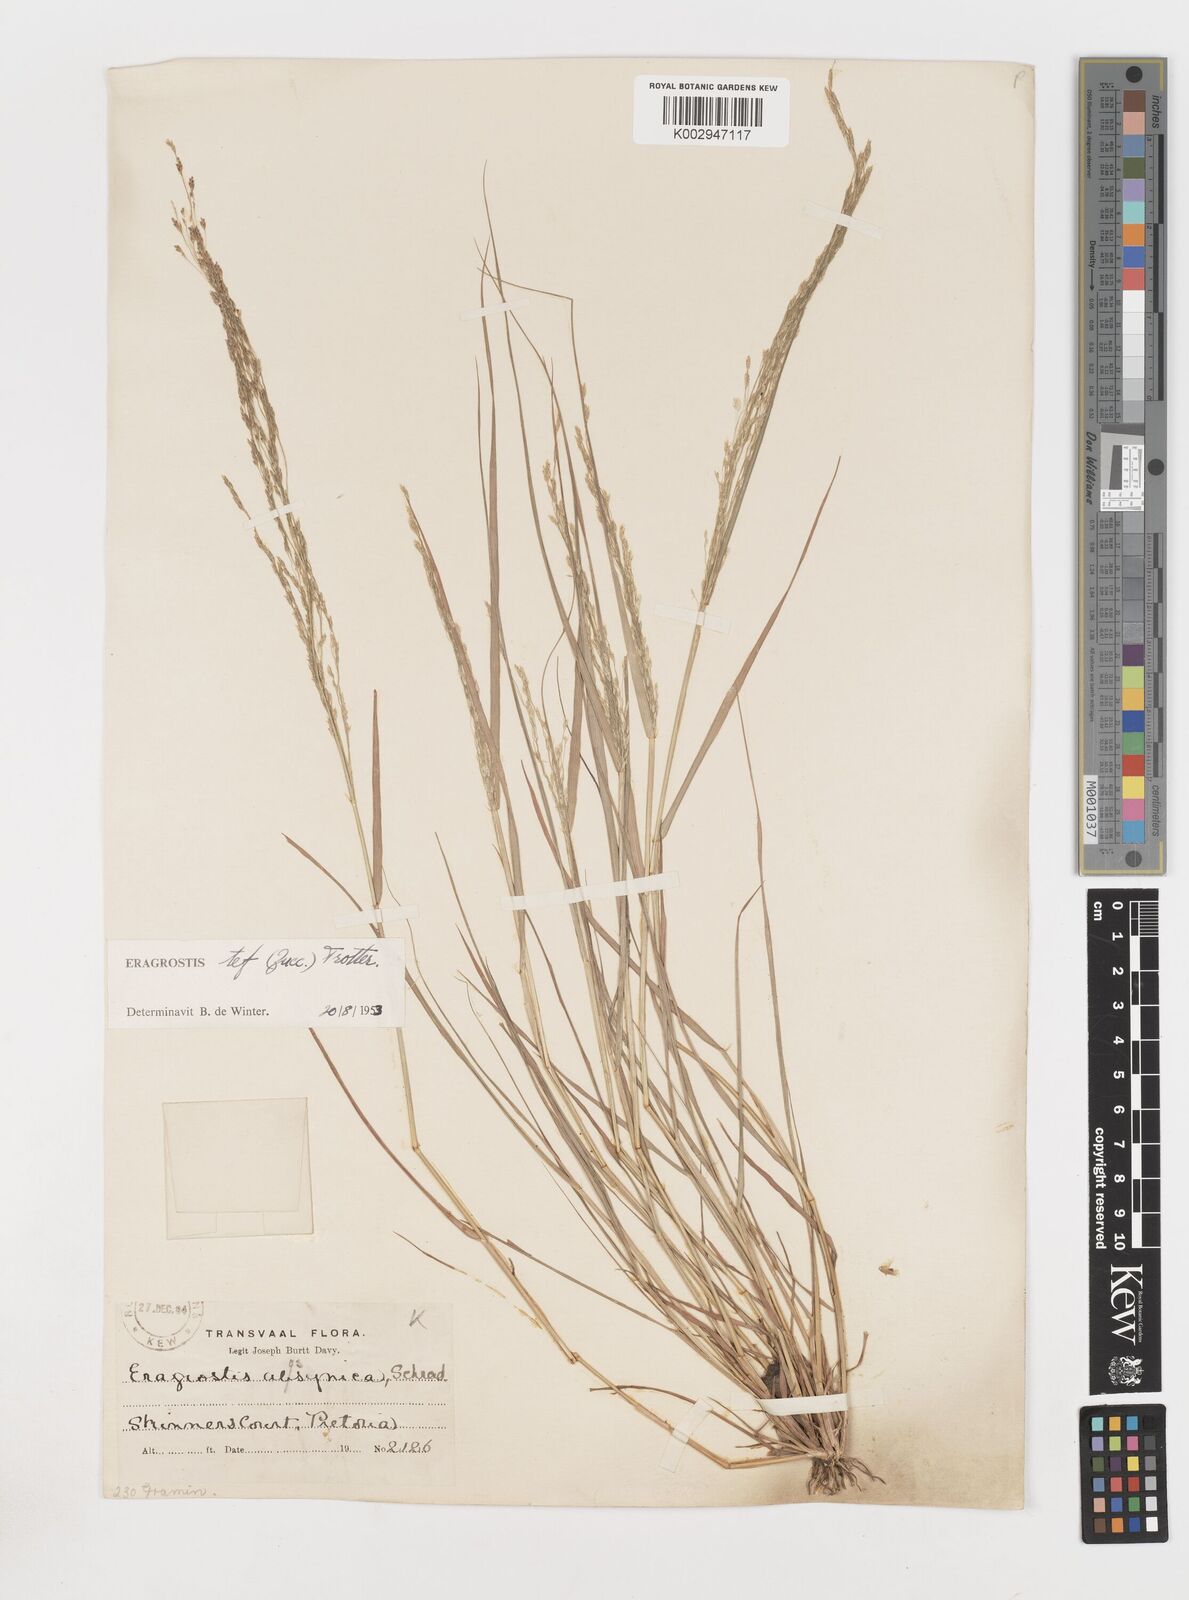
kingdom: Plantae
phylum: Tracheophyta
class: Liliopsida
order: Poales
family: Poaceae
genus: Eragrostis
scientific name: Eragrostis tef
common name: Teff
